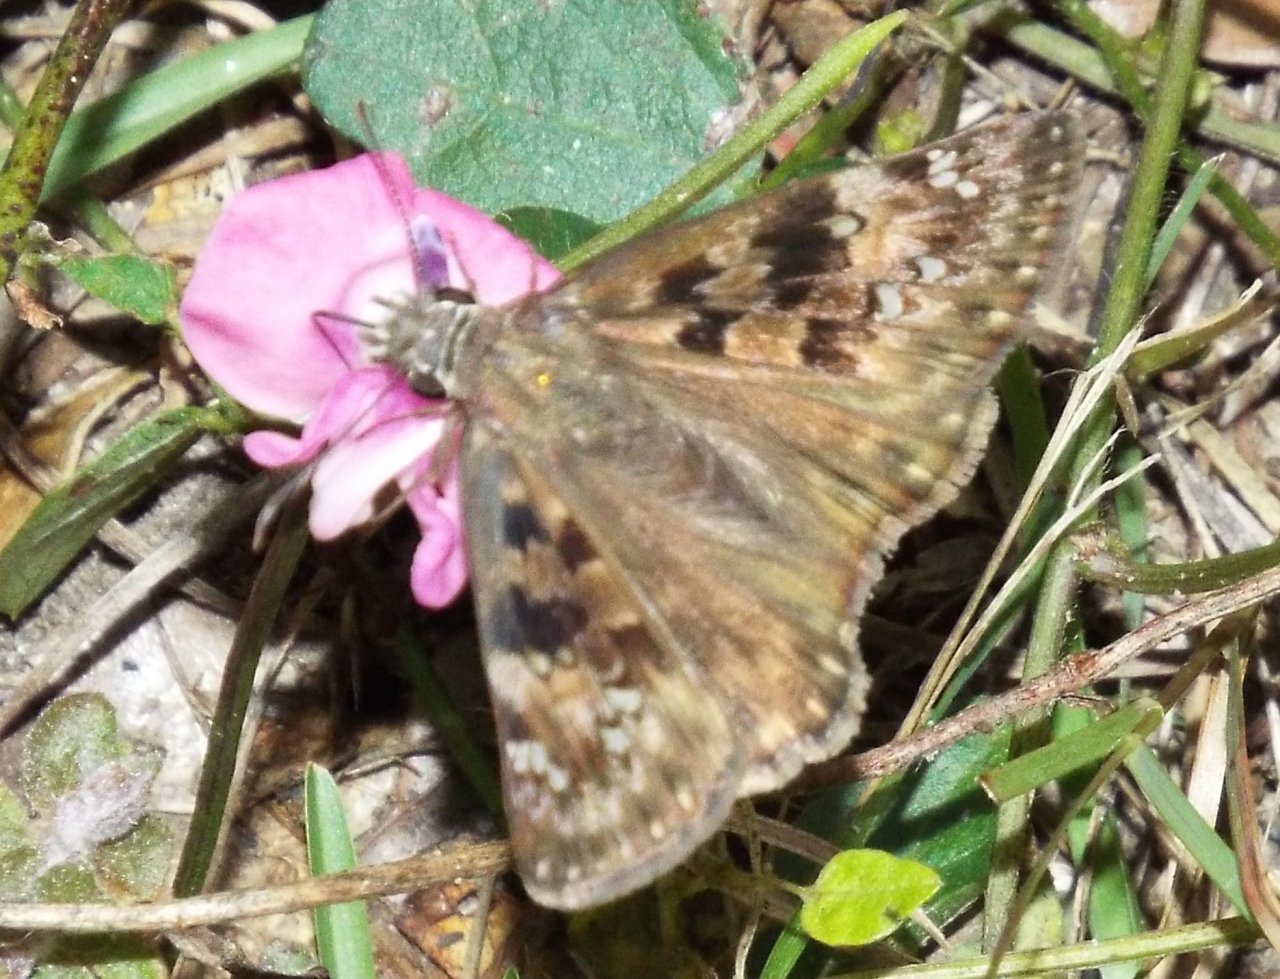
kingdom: Animalia
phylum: Arthropoda
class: Insecta
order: Lepidoptera
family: Hesperiidae
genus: Gesta
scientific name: Gesta
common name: Horace's Duskywing
